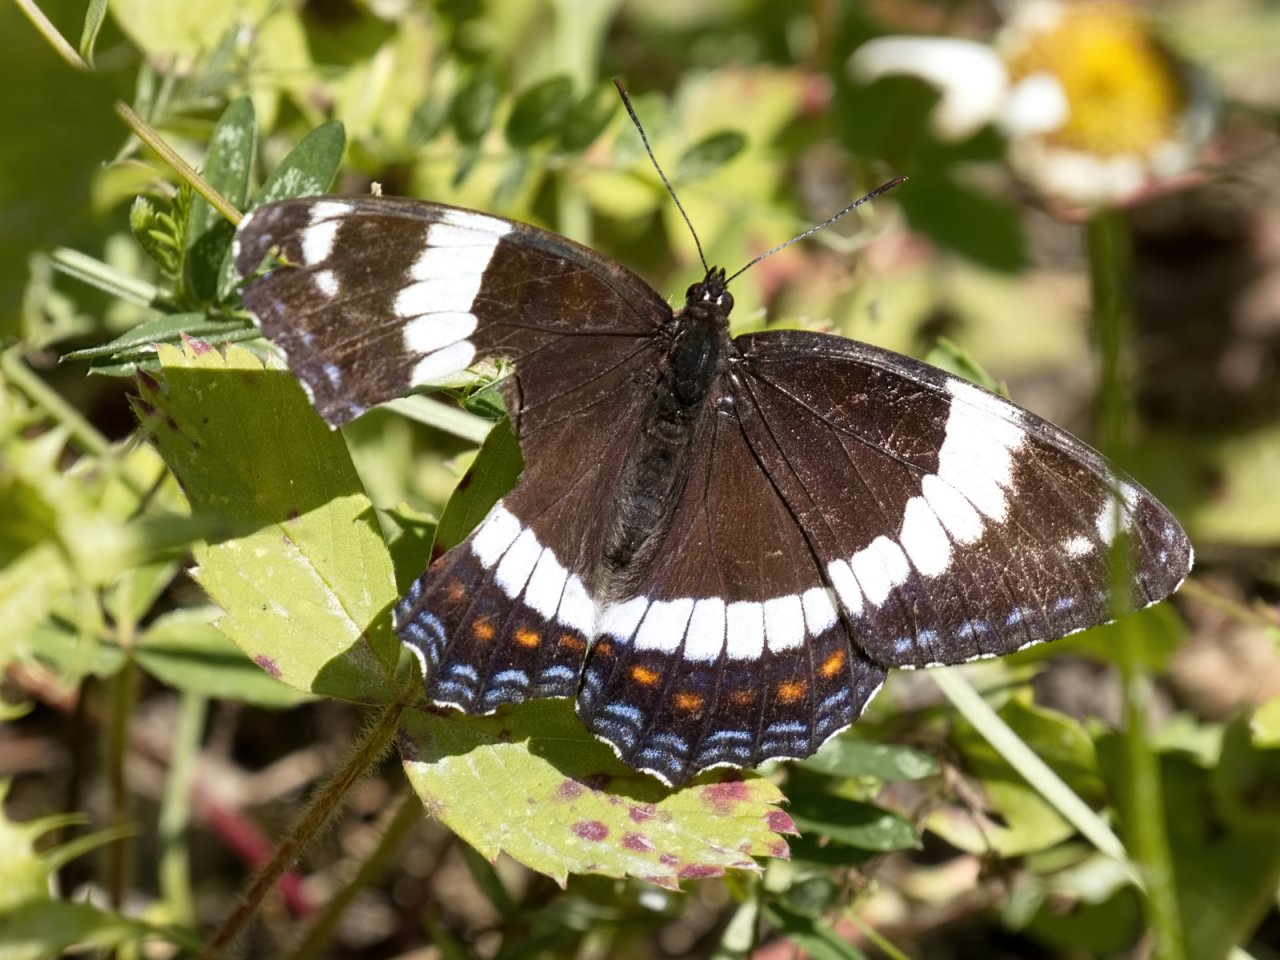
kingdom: Animalia
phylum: Arthropoda
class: Insecta
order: Lepidoptera
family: Nymphalidae
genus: Limenitis
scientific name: Limenitis arthemis
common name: Red-spotted Admiral
